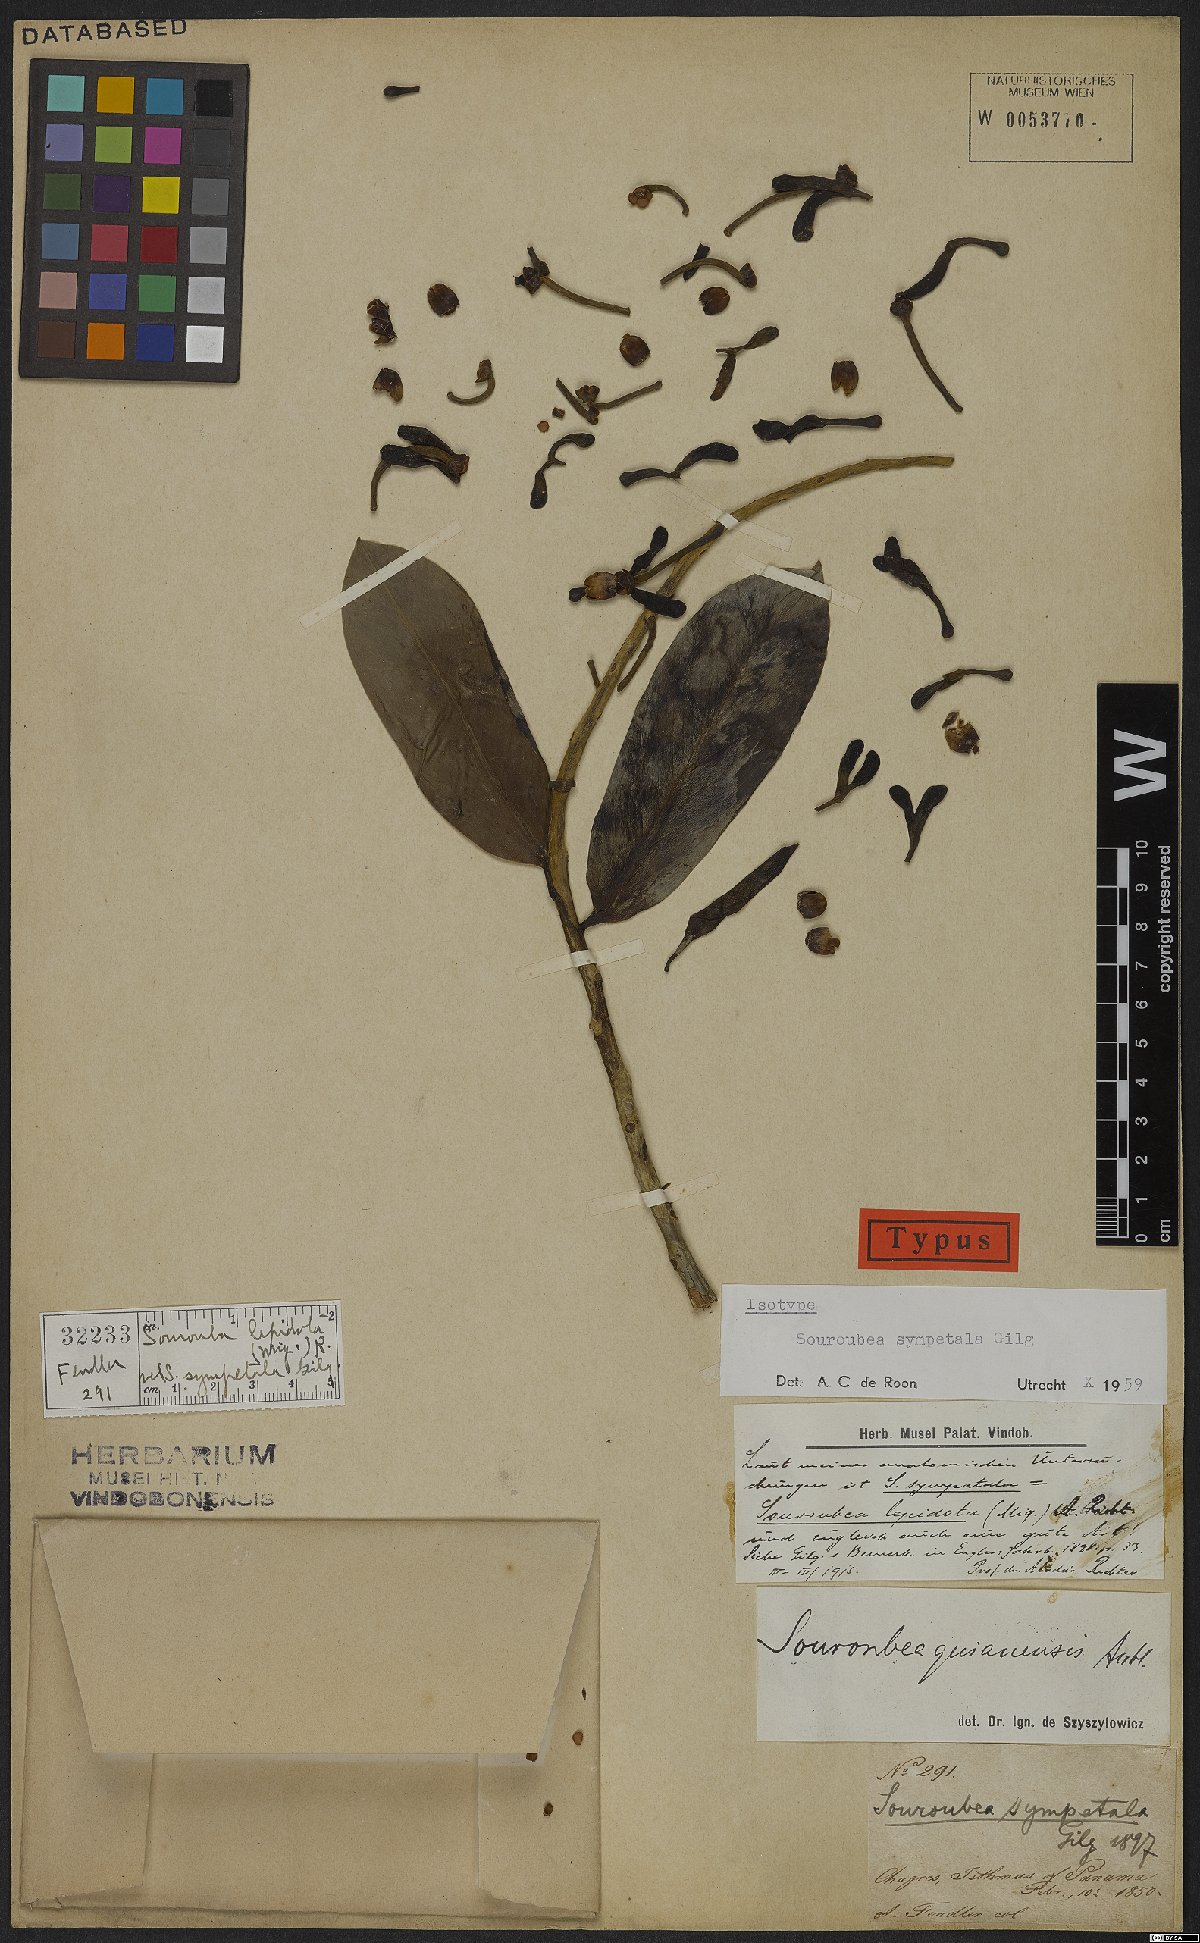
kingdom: Plantae
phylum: Tracheophyta
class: Magnoliopsida
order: Ericales
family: Marcgraviaceae
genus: Souroubea
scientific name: Souroubea sympetala
